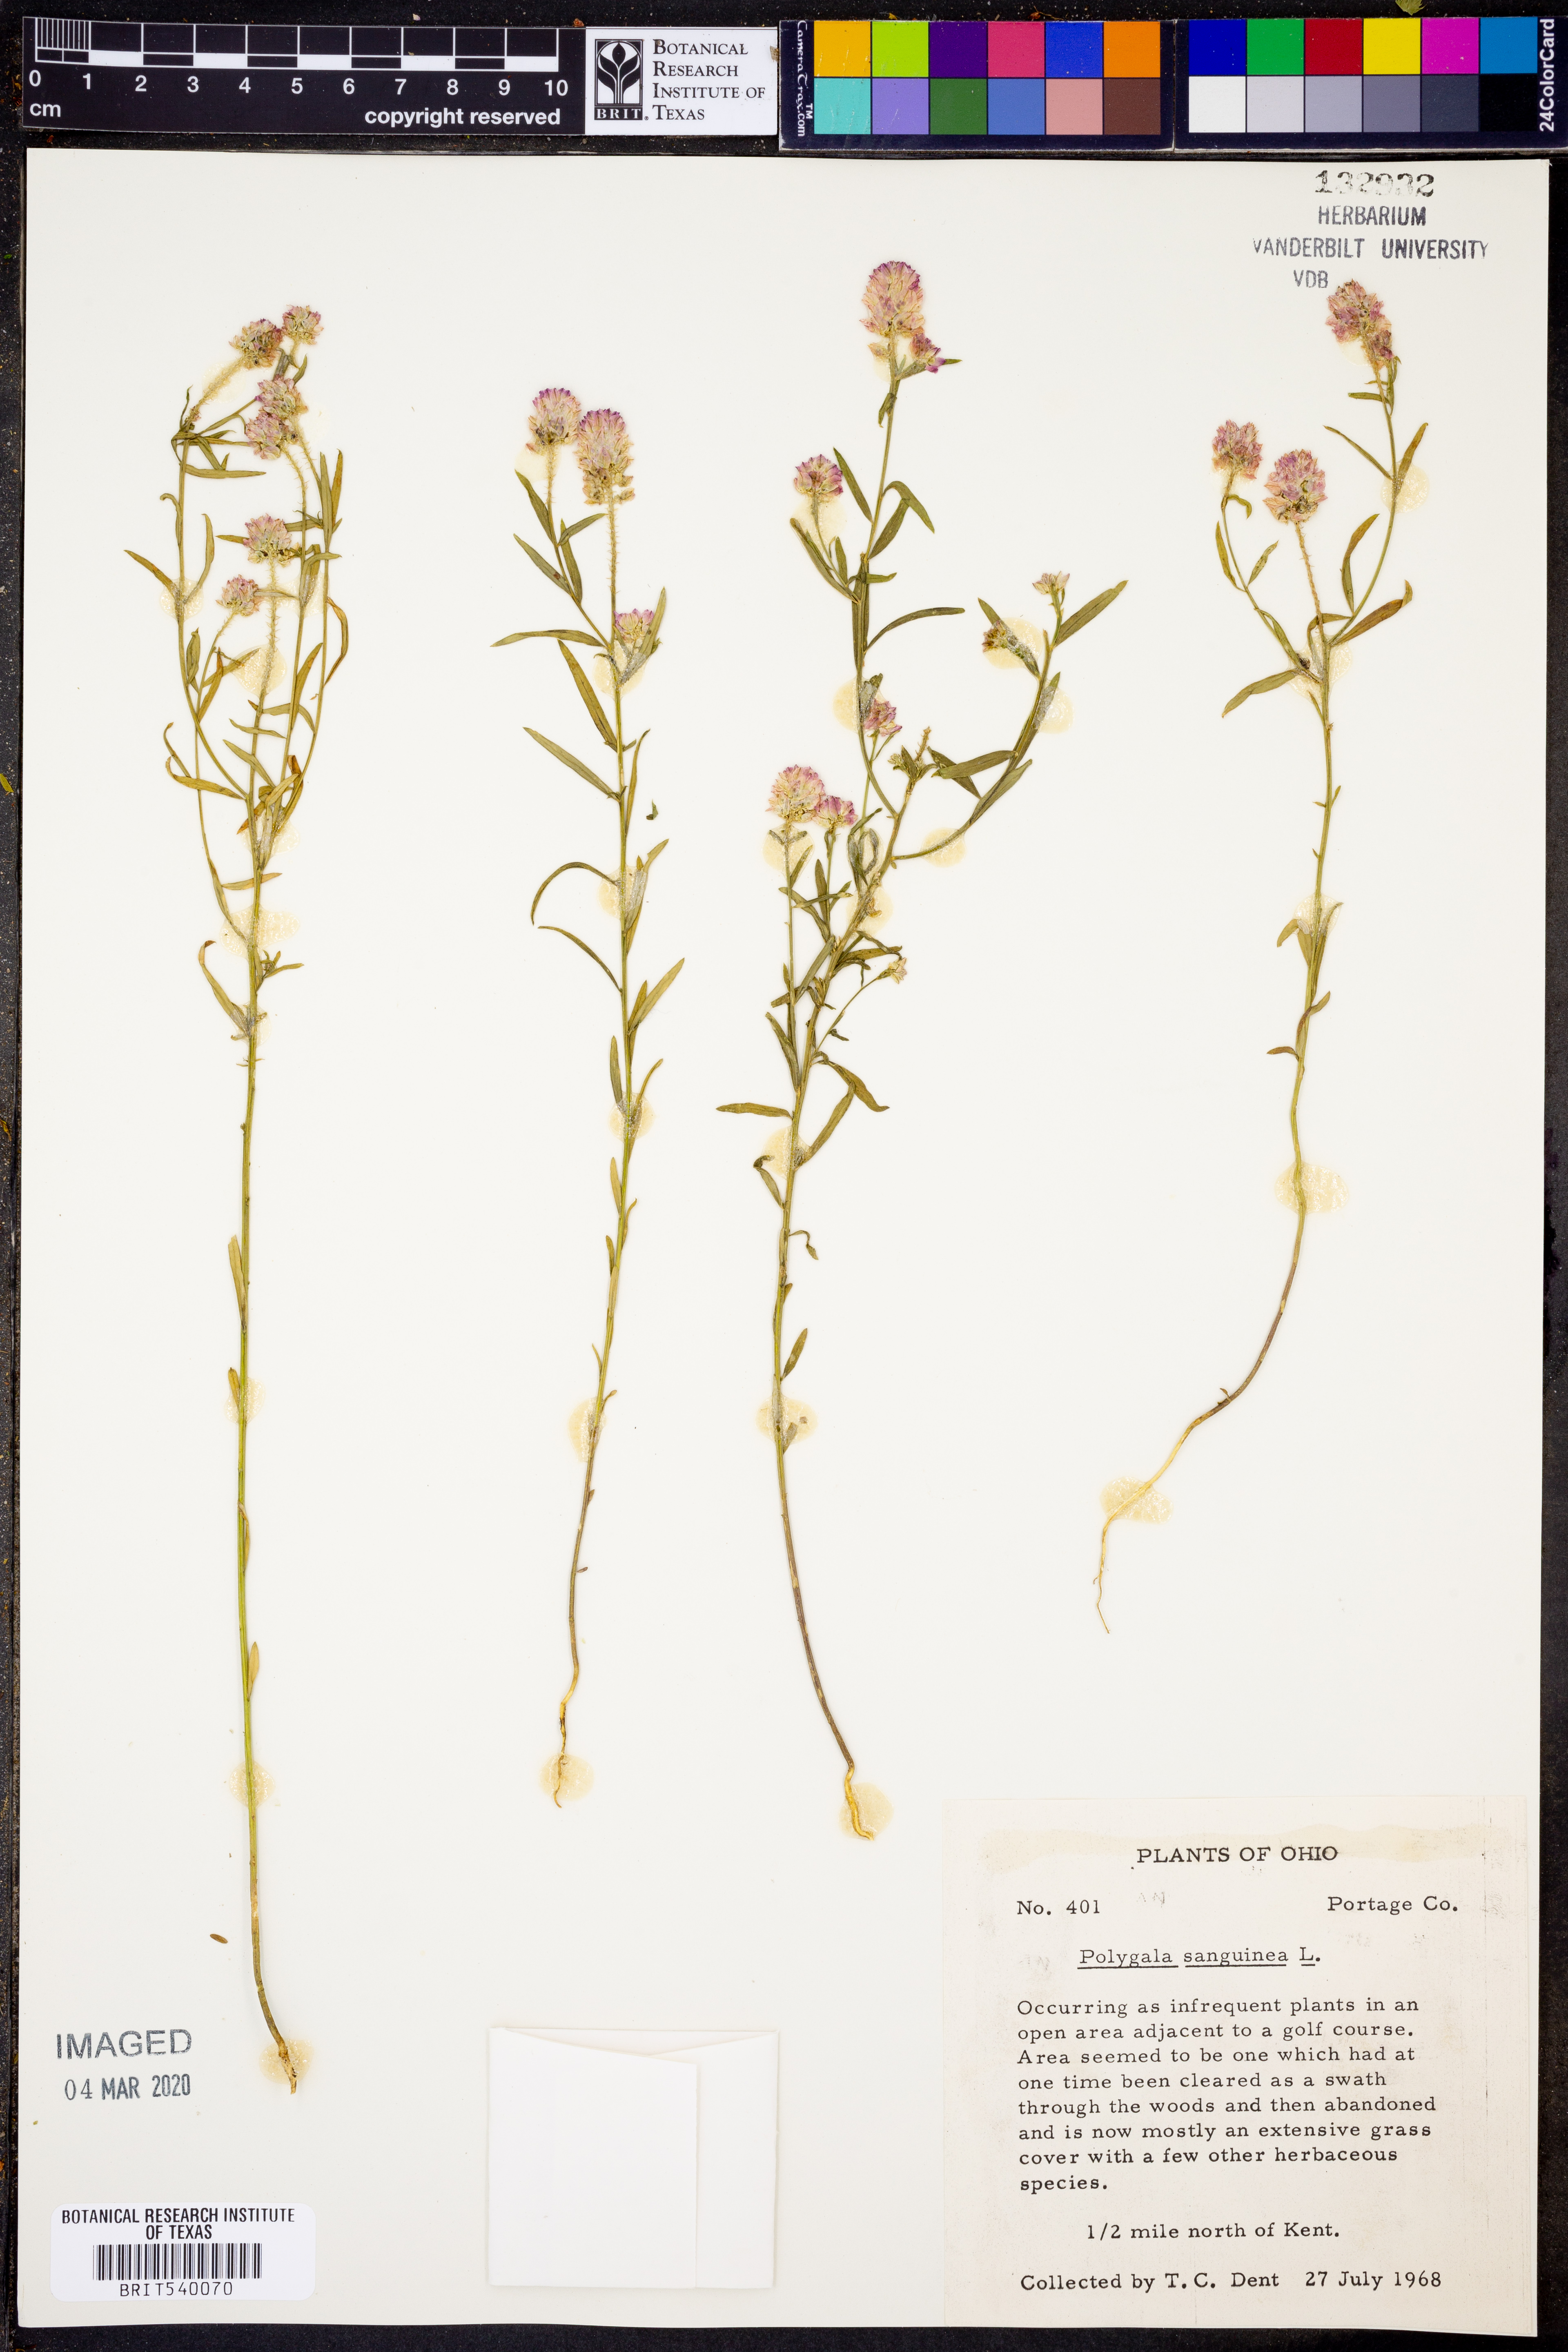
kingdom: Plantae
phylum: Tracheophyta
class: Magnoliopsida
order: Fabales
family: Polygalaceae
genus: Polygala
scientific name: Polygala sanguinea
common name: Blood milkwort
